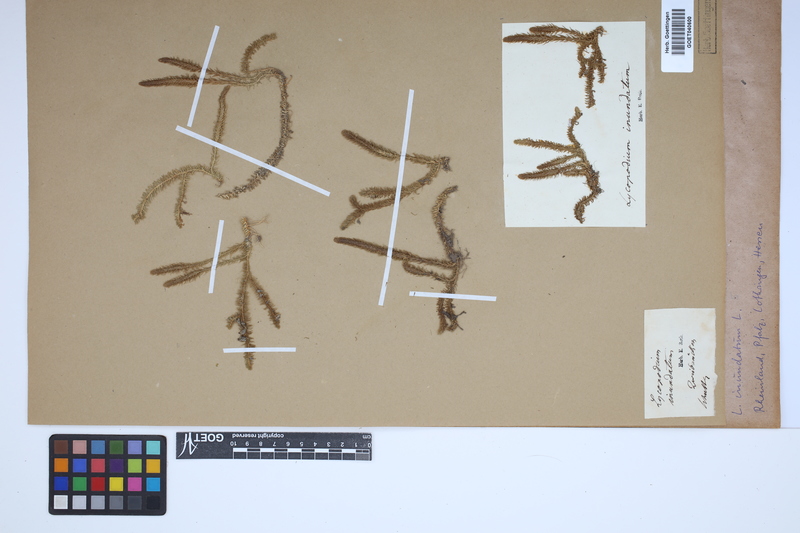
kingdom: Plantae
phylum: Tracheophyta
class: Lycopodiopsida
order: Lycopodiales
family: Lycopodiaceae
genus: Lycopodiella
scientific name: Lycopodiella inundata
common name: Marsh clubmoss
